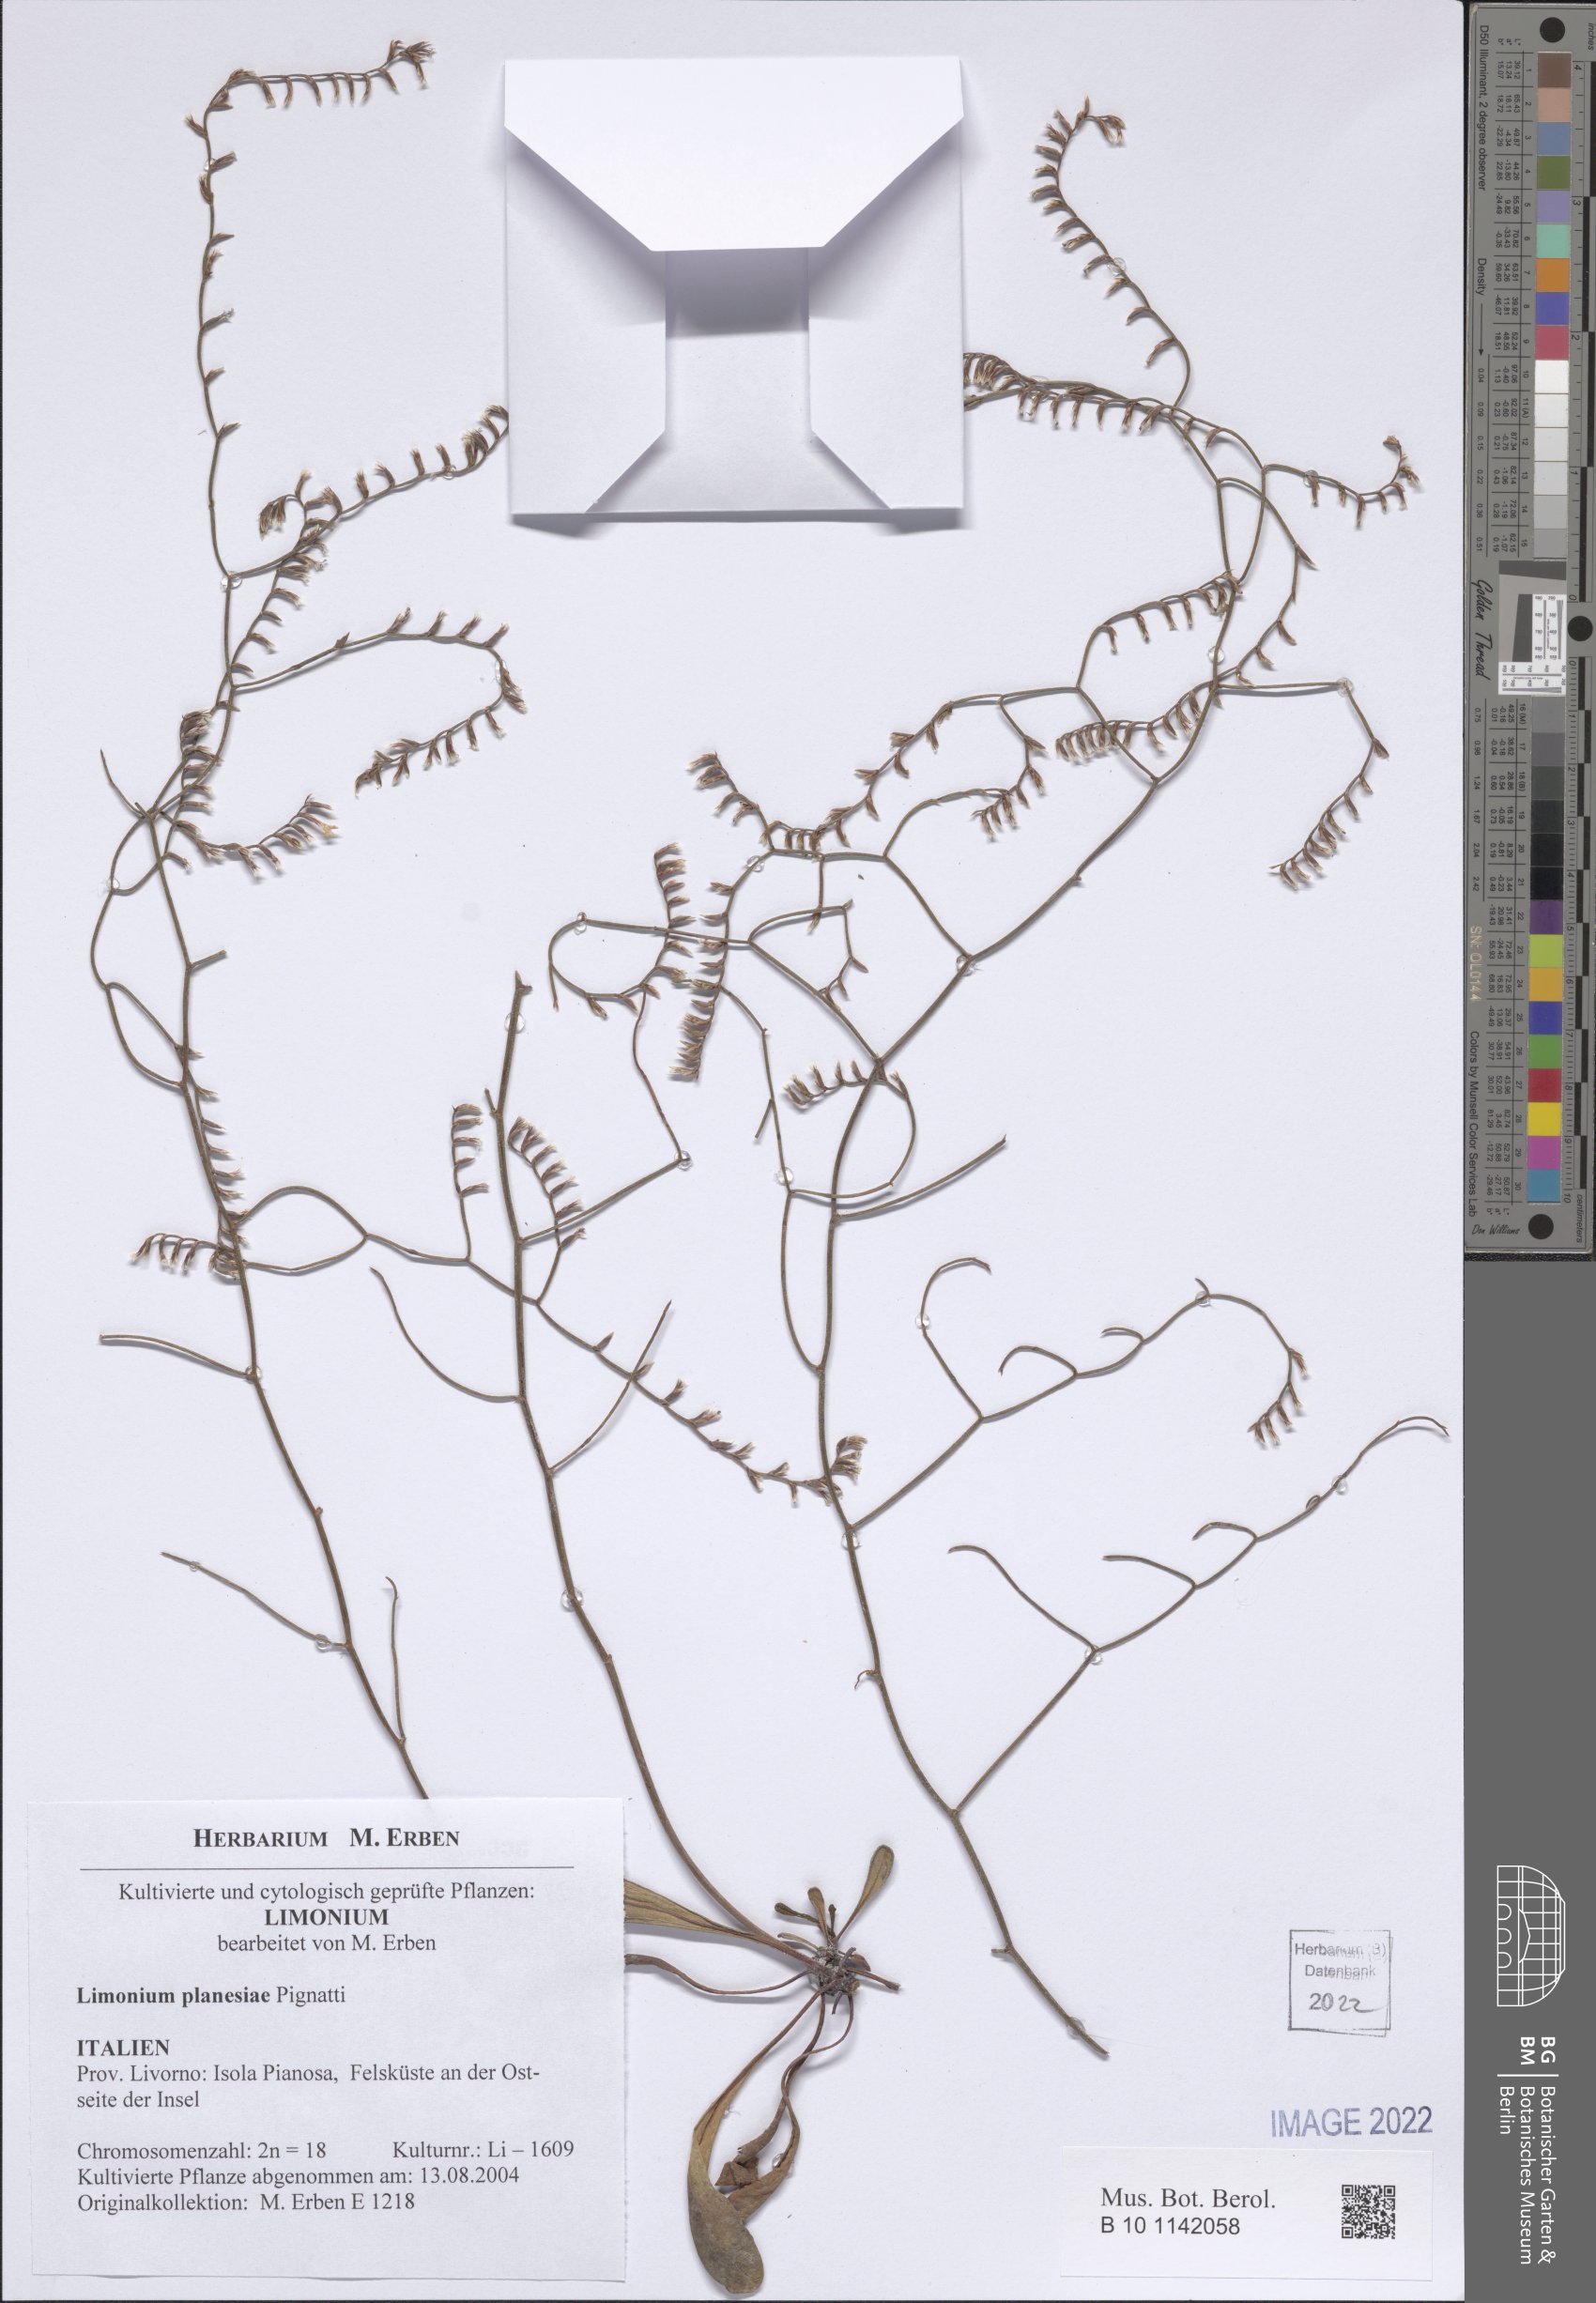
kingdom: Plantae
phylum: Tracheophyta
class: Magnoliopsida
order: Caryophyllales
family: Plumbaginaceae
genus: Limonium
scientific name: Limonium planesiae
